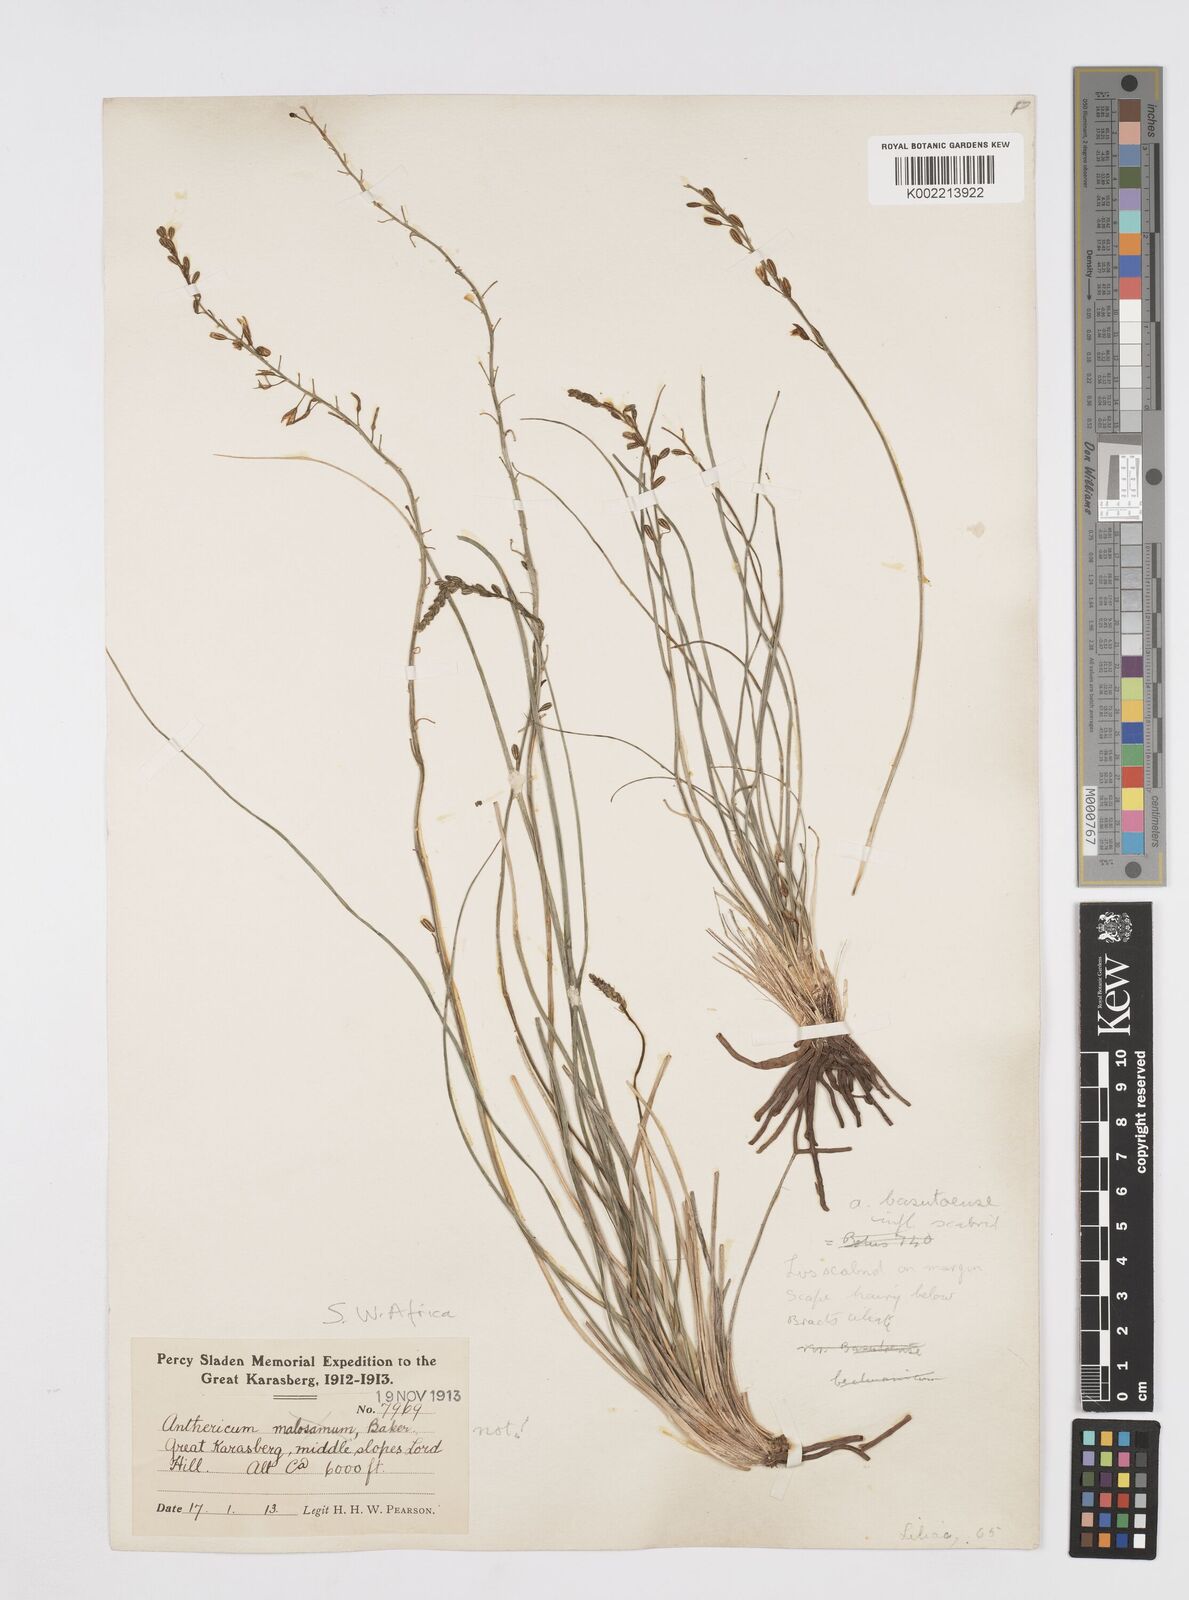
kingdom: Plantae
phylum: Tracheophyta
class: Liliopsida
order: Asparagales
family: Asphodelaceae
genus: Trachyandra
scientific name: Trachyandra asperata
